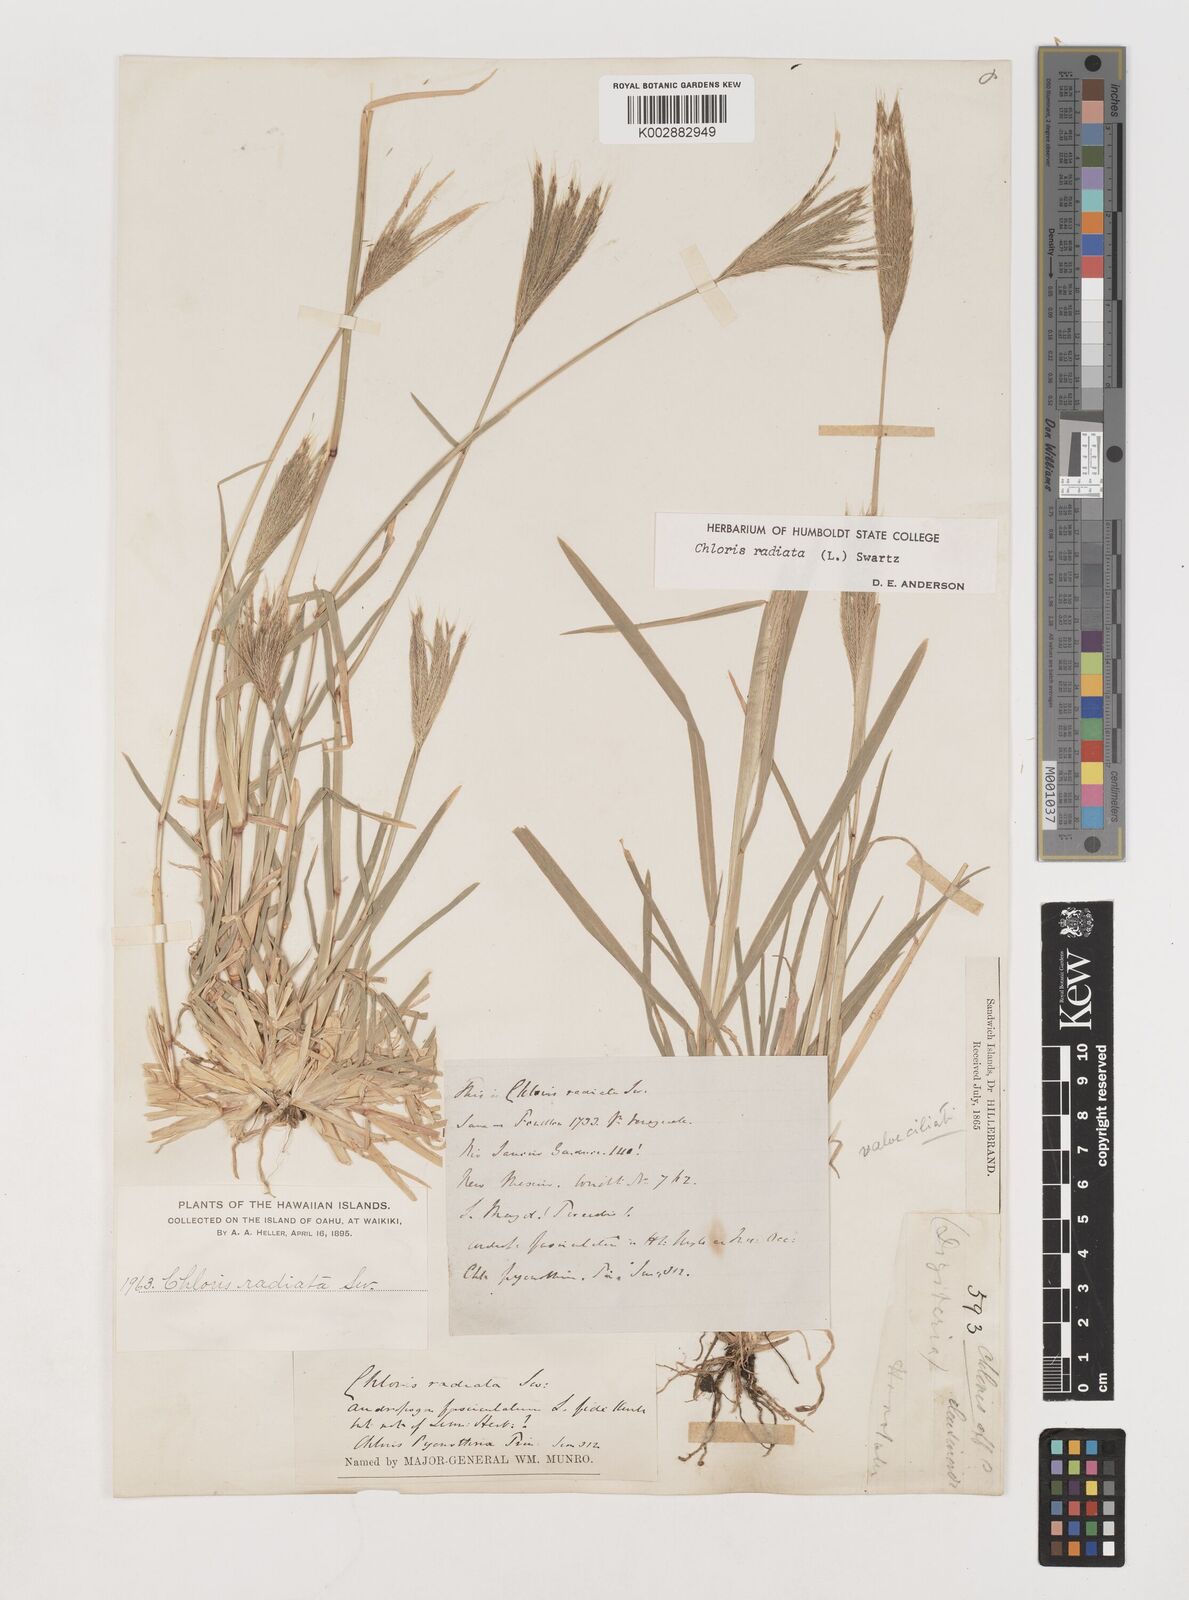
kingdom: Plantae
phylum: Tracheophyta
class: Liliopsida
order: Poales
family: Poaceae
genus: Chloris
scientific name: Chloris radiata
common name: Radiate fingergrass
